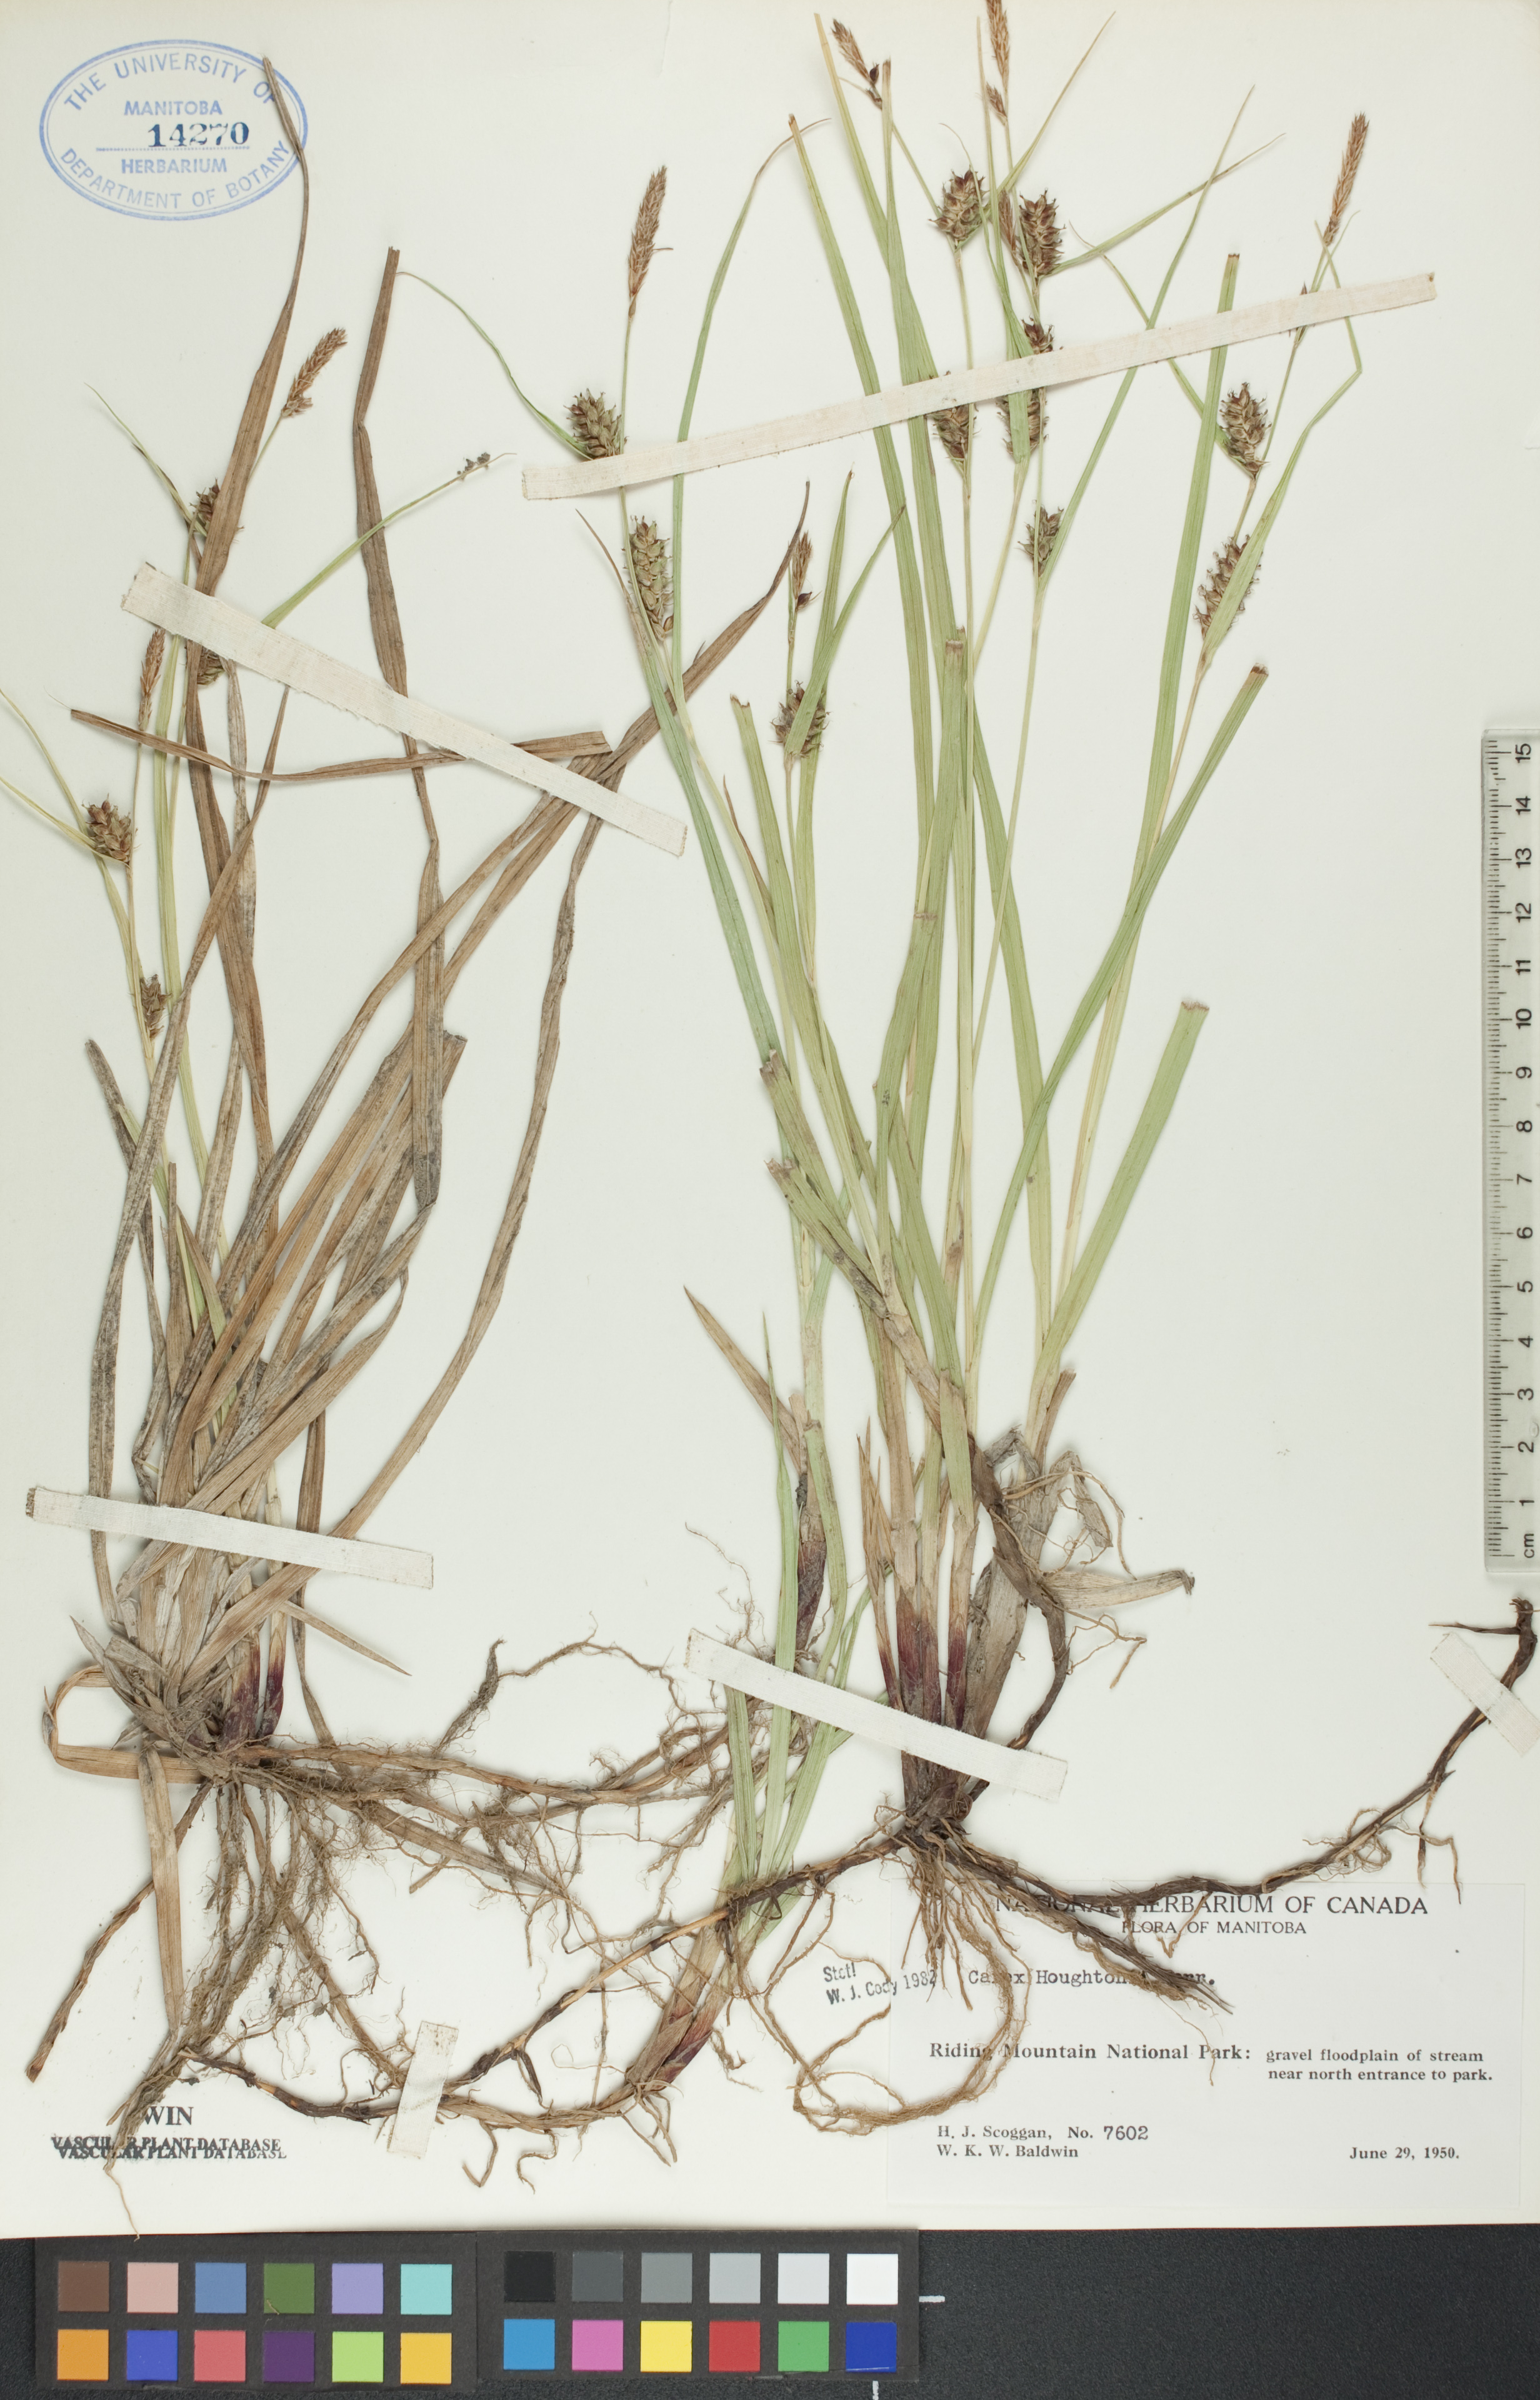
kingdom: Plantae
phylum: Tracheophyta
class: Liliopsida
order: Poales
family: Cyperaceae
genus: Carex
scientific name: Carex houghtoniana
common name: Houghton's sedge
